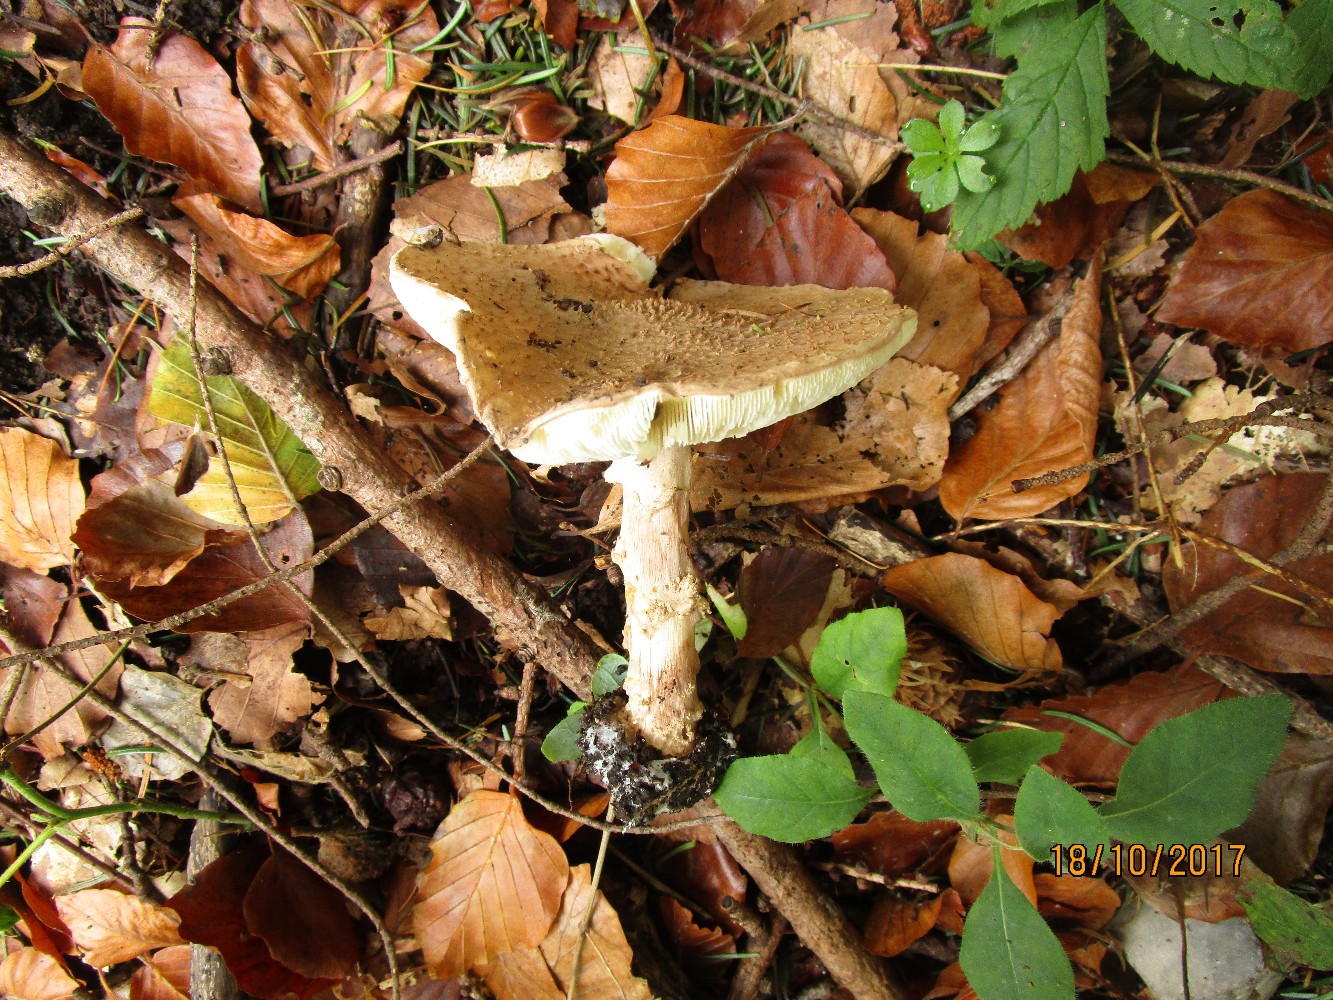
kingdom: Fungi
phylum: Basidiomycota
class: Agaricomycetes
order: Agaricales
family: Agaricaceae
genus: Echinoderma
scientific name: Echinoderma asperum
